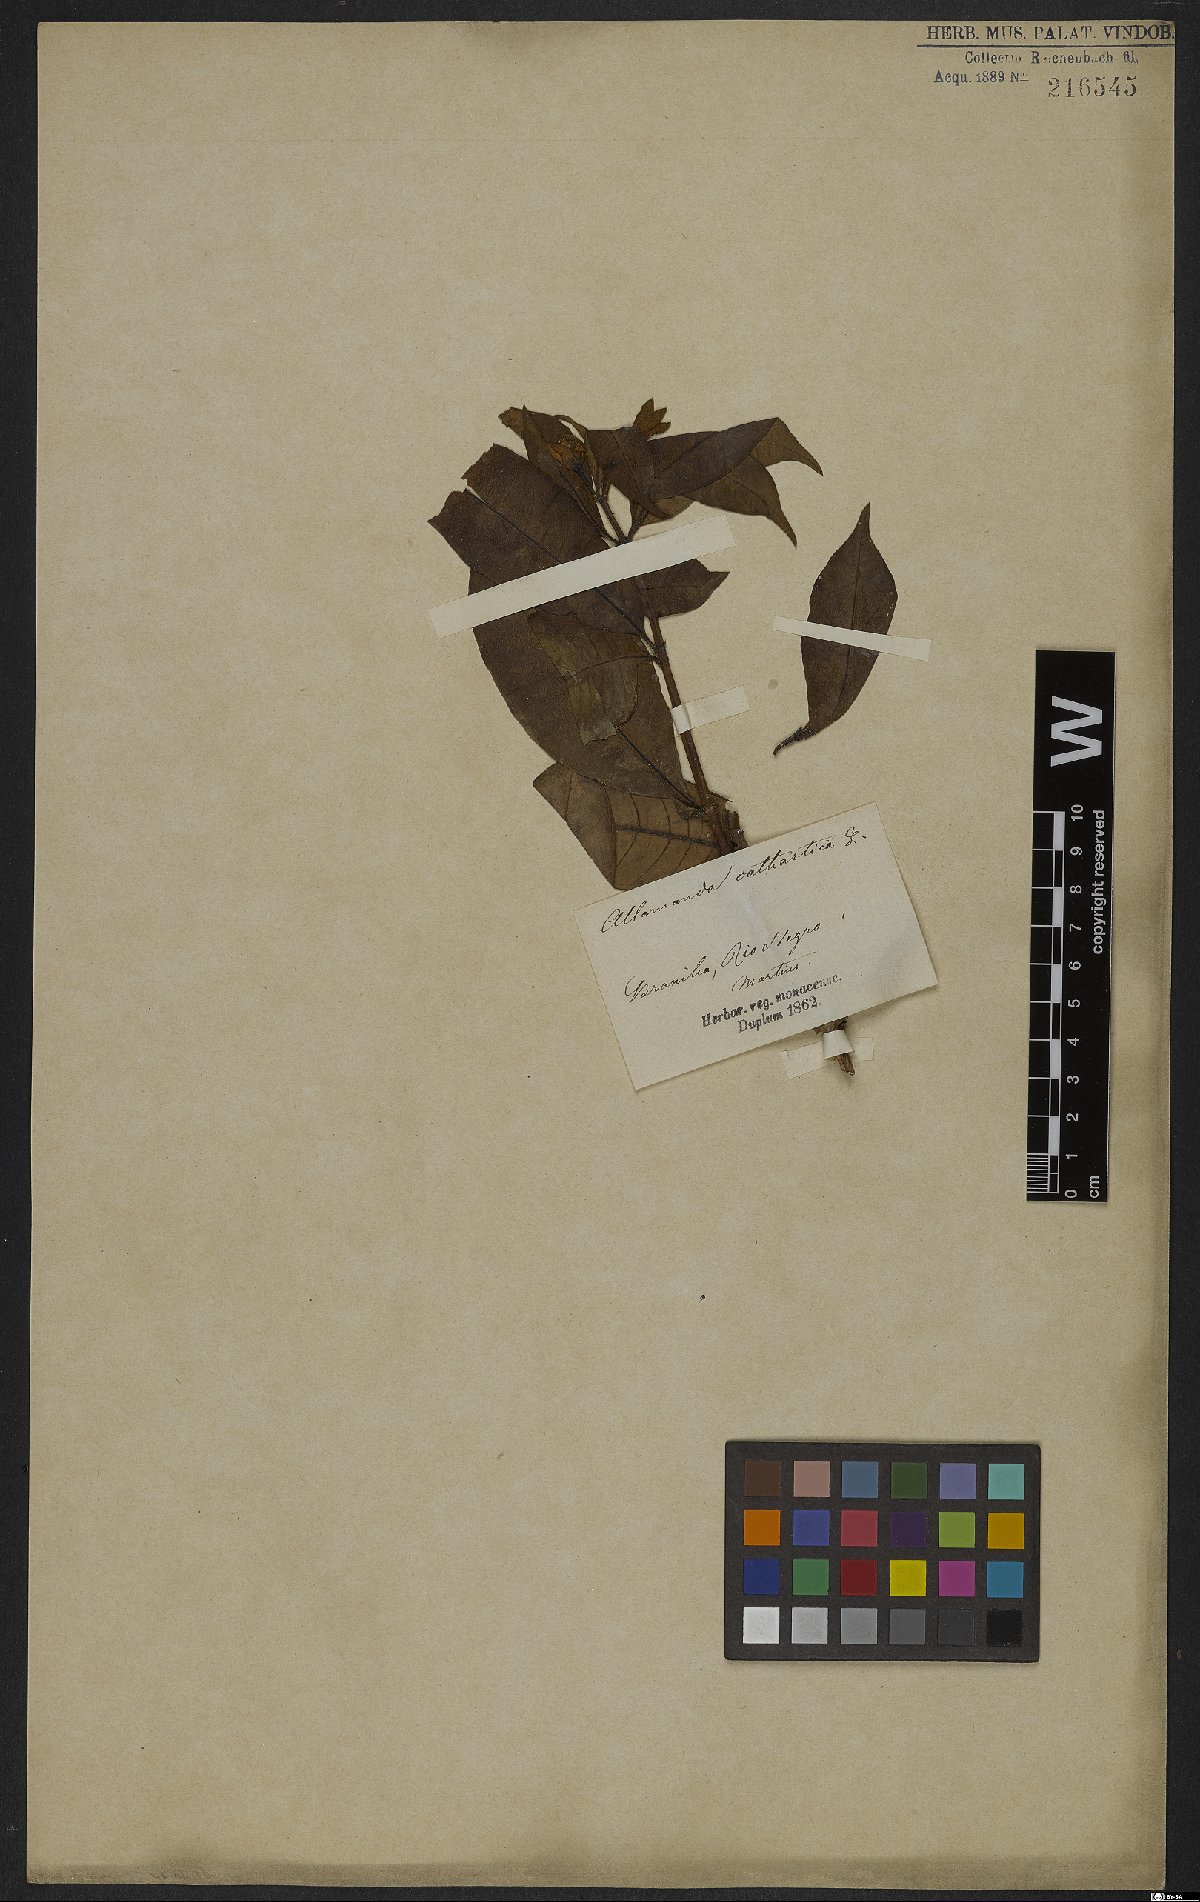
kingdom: Plantae
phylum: Tracheophyta
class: Magnoliopsida
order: Gentianales
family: Apocynaceae
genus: Allamanda
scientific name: Allamanda cathartica
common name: Golden trumpet
